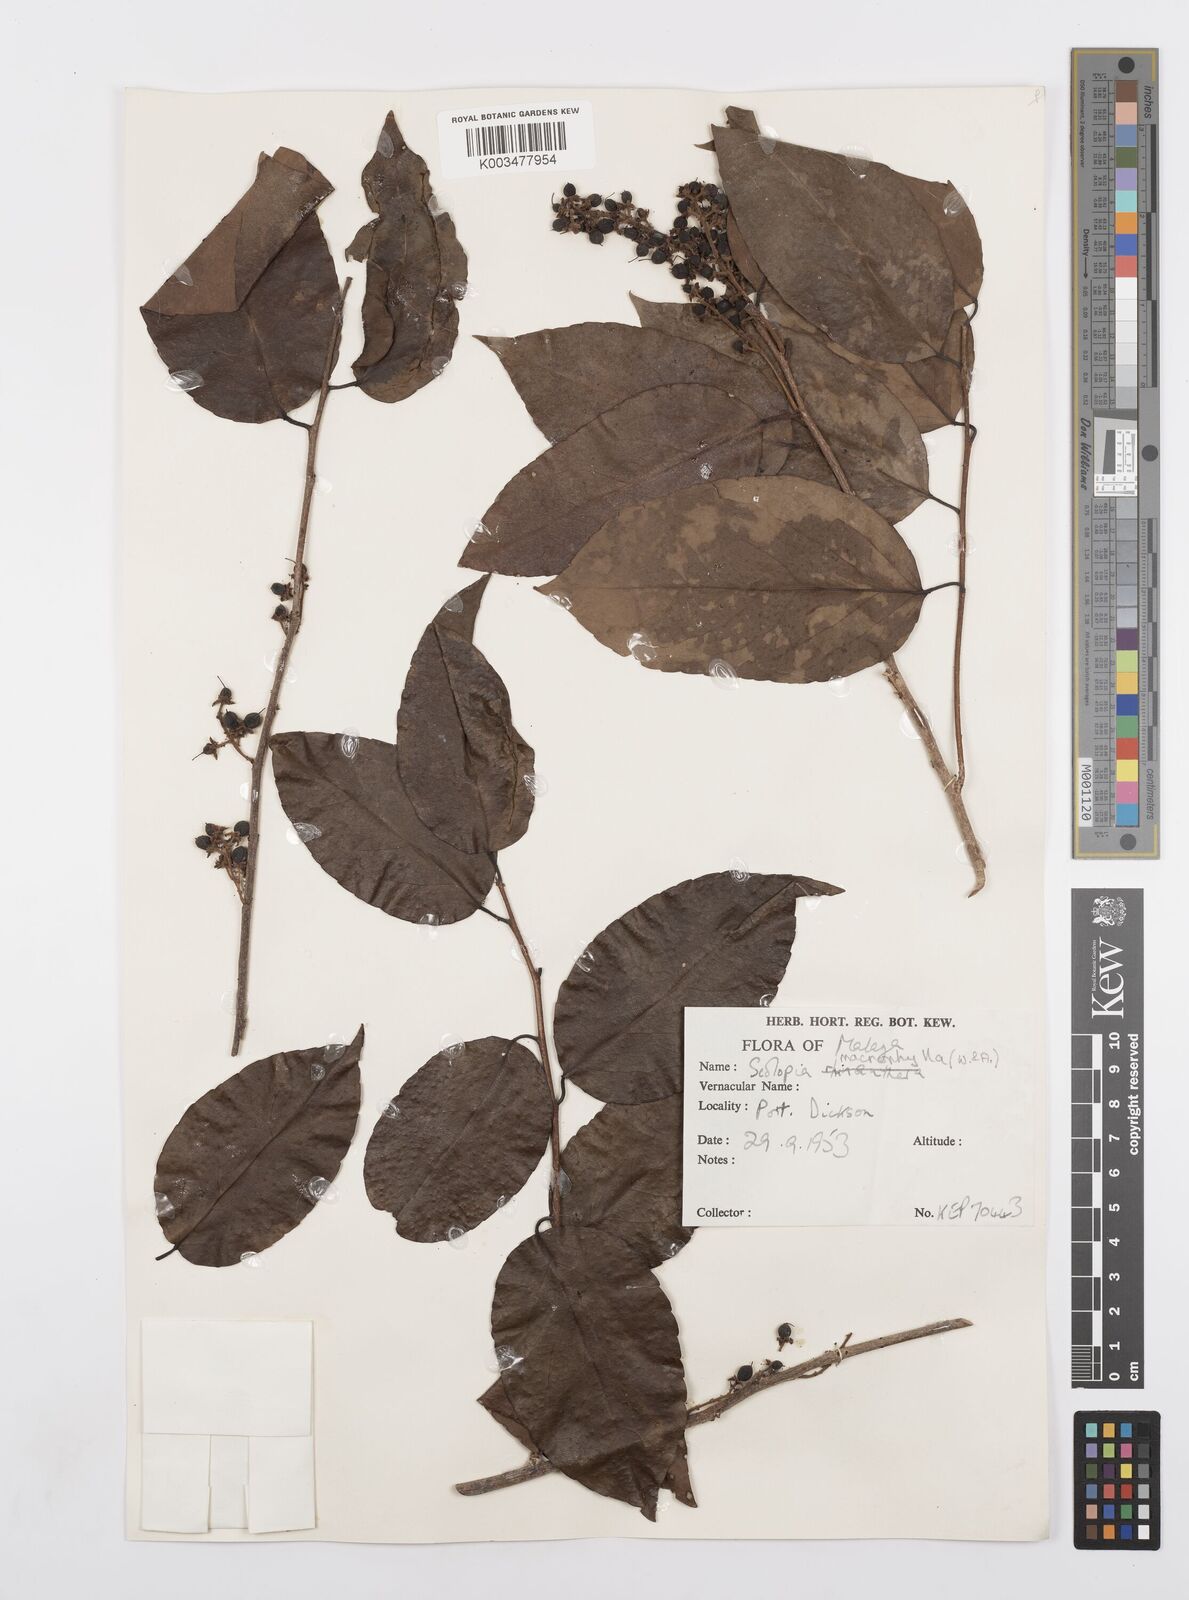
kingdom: Plantae
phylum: Tracheophyta
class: Magnoliopsida
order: Malpighiales
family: Salicaceae
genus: Scolopia
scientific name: Scolopia macrophylla
